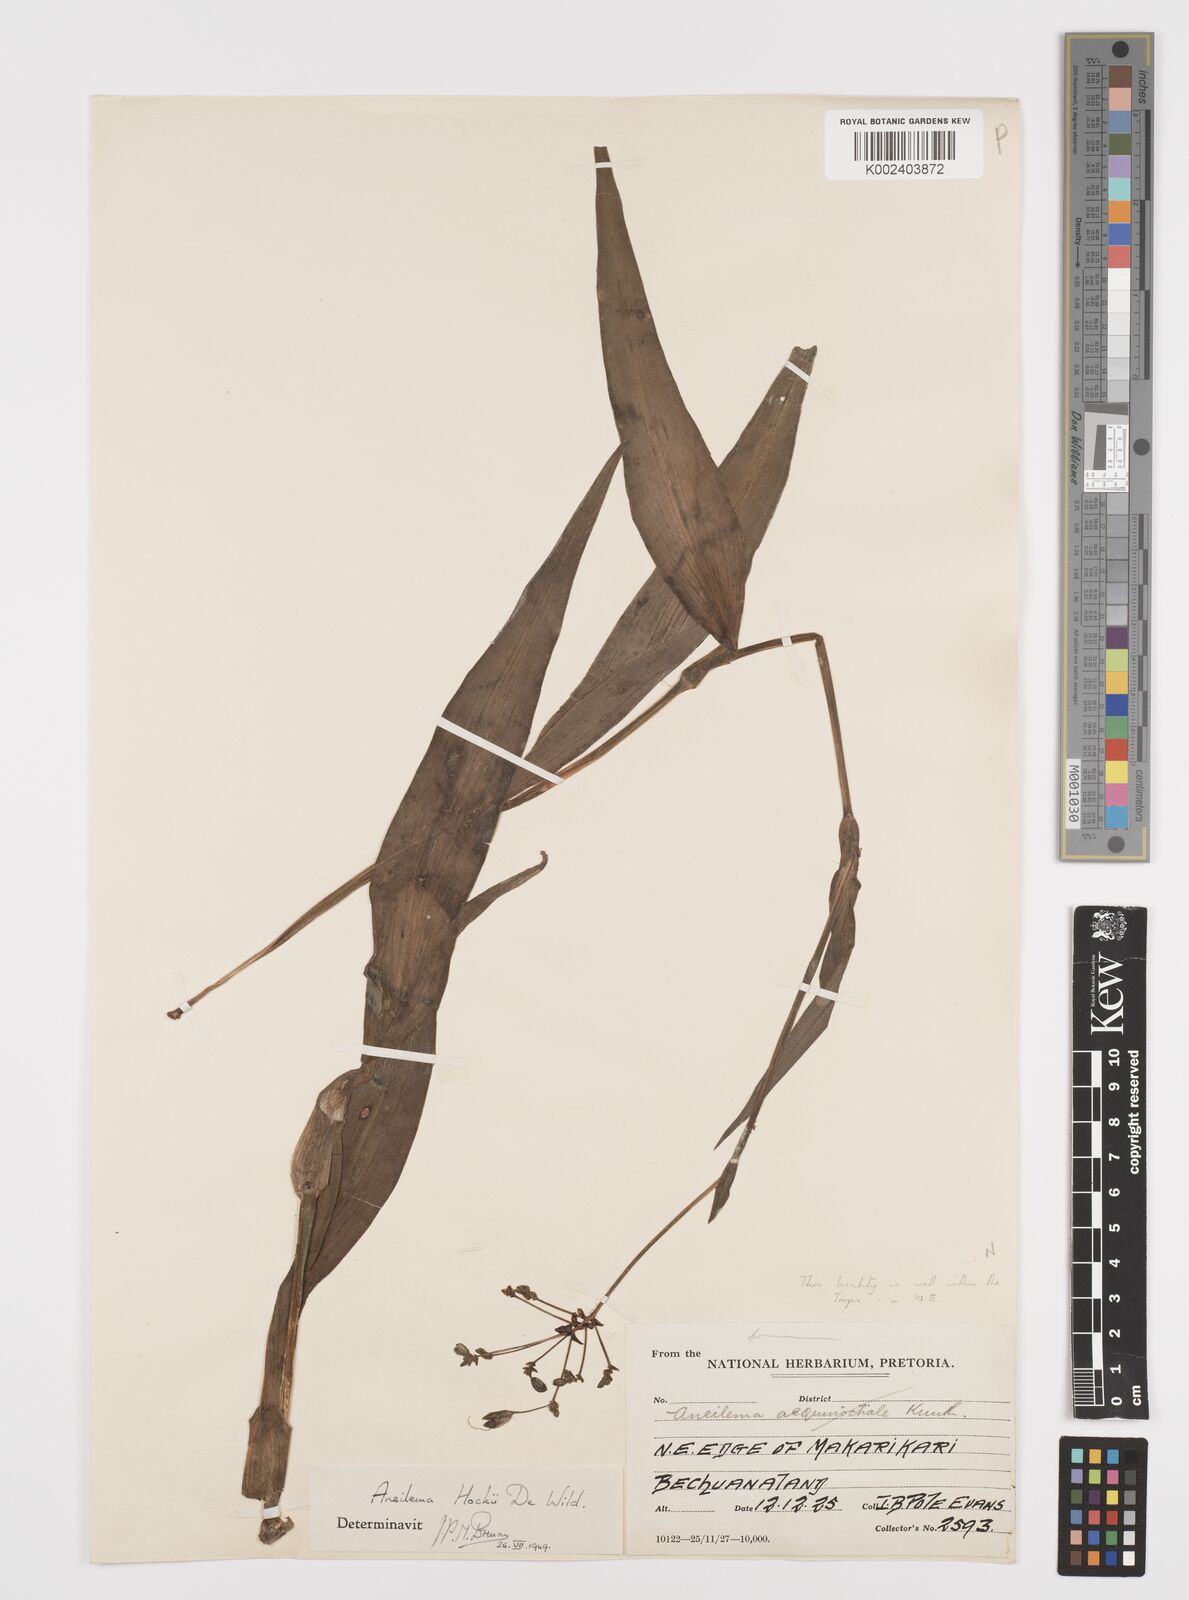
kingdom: Plantae
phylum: Tracheophyta
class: Liliopsida
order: Commelinales
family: Commelinaceae
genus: Aneilema
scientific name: Aneilema hockii
